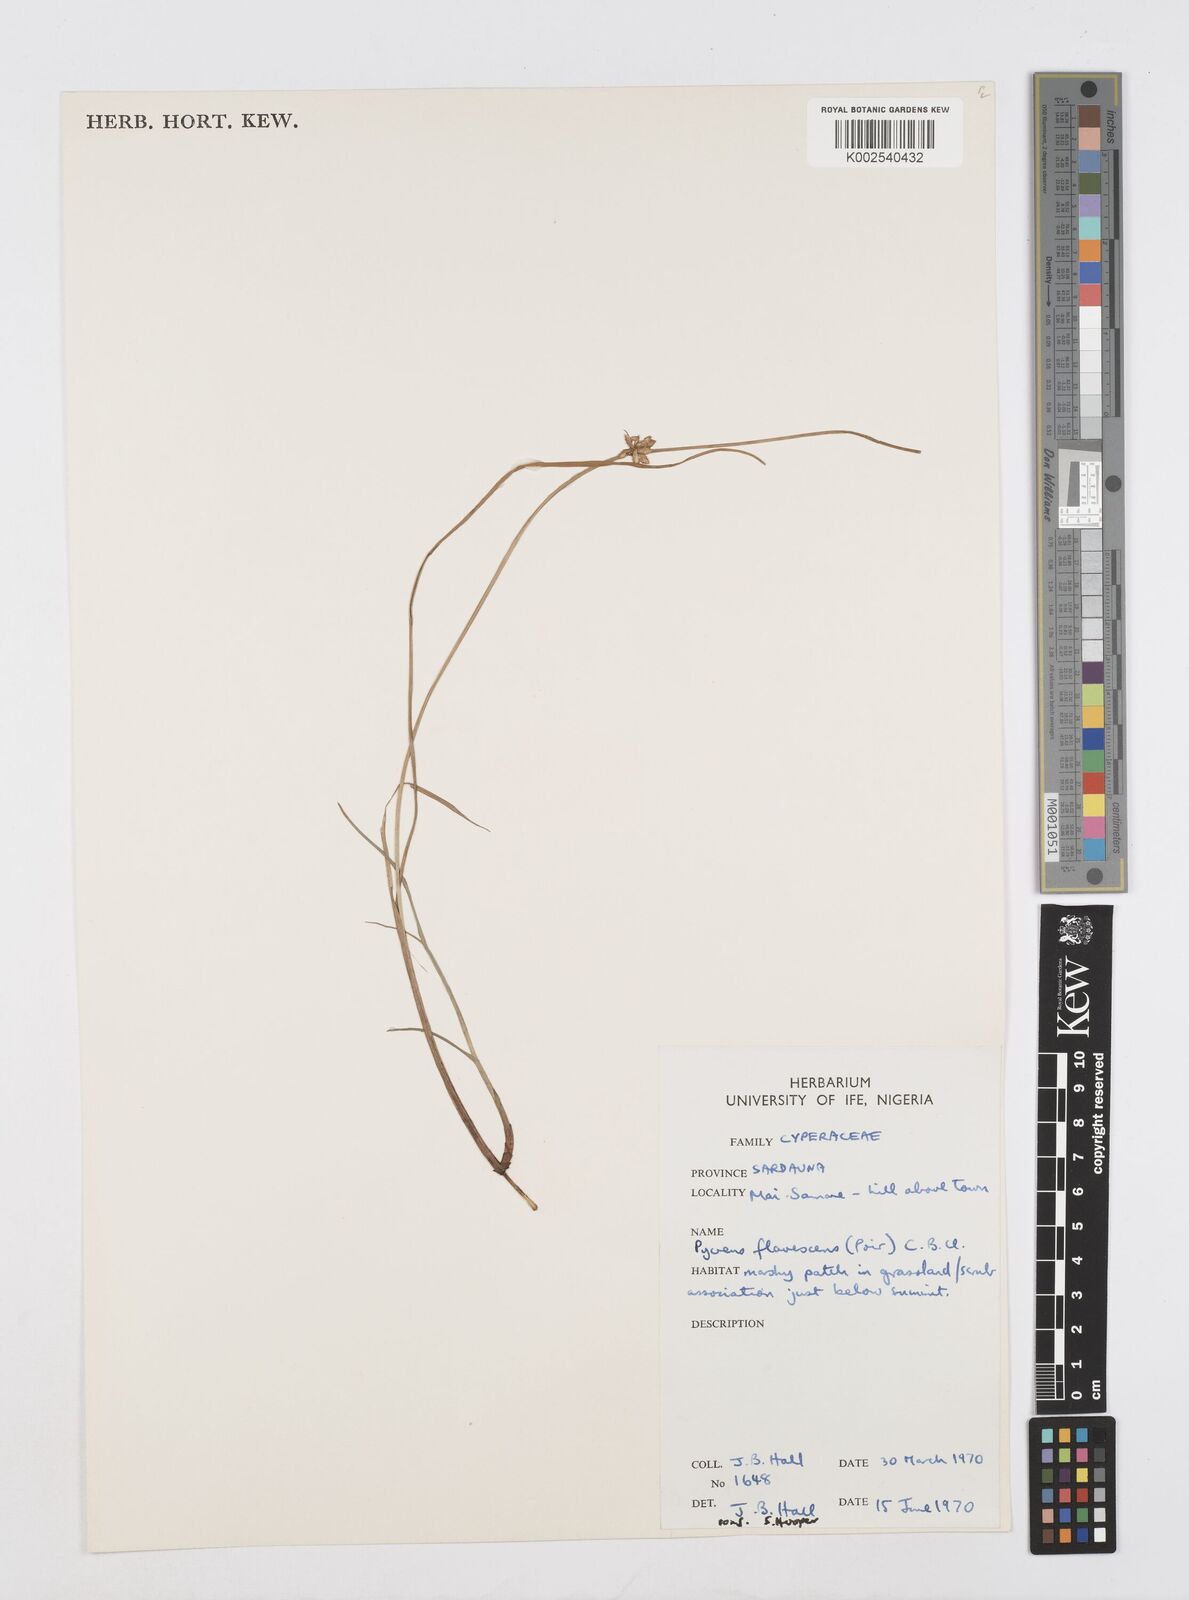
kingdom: Plantae
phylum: Tracheophyta
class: Liliopsida
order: Poales
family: Cyperaceae
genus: Cyperus
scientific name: Cyperus flavescens
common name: Yellow galingale
